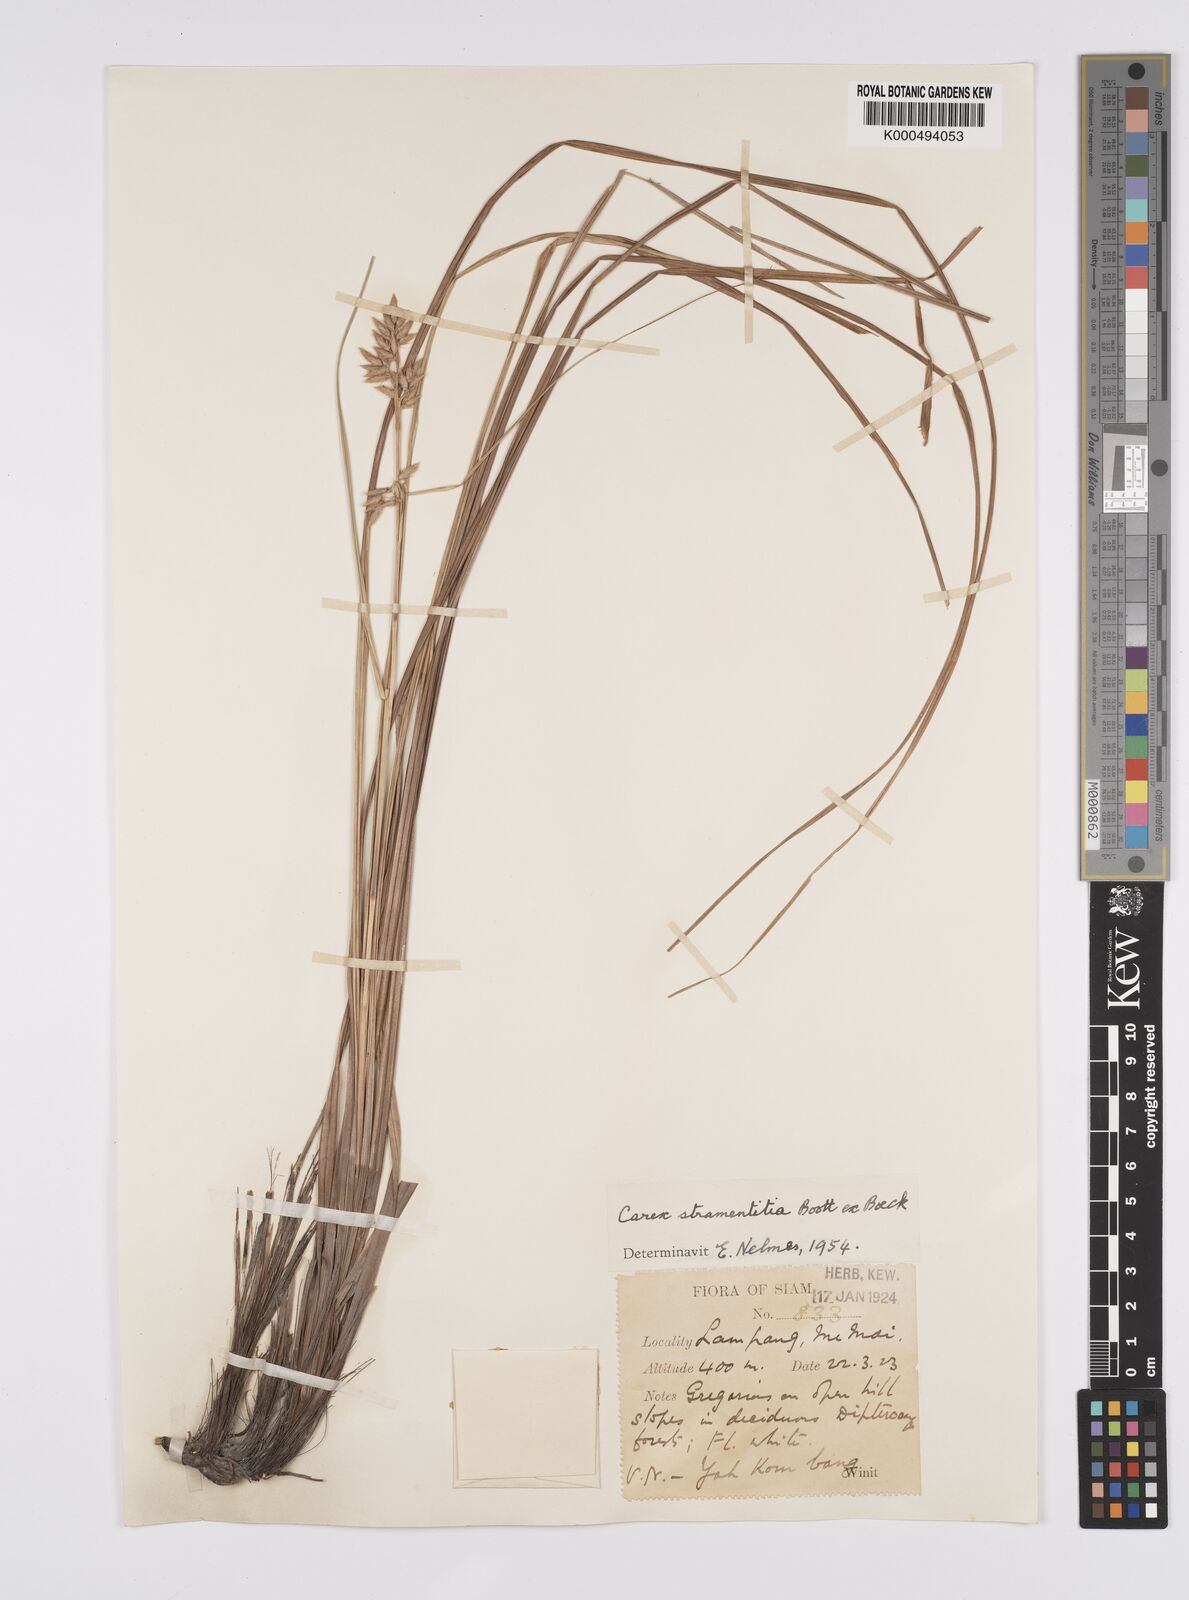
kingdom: Plantae
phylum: Tracheophyta
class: Liliopsida
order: Poales
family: Cyperaceae
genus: Carex
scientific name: Carex stramentitia
